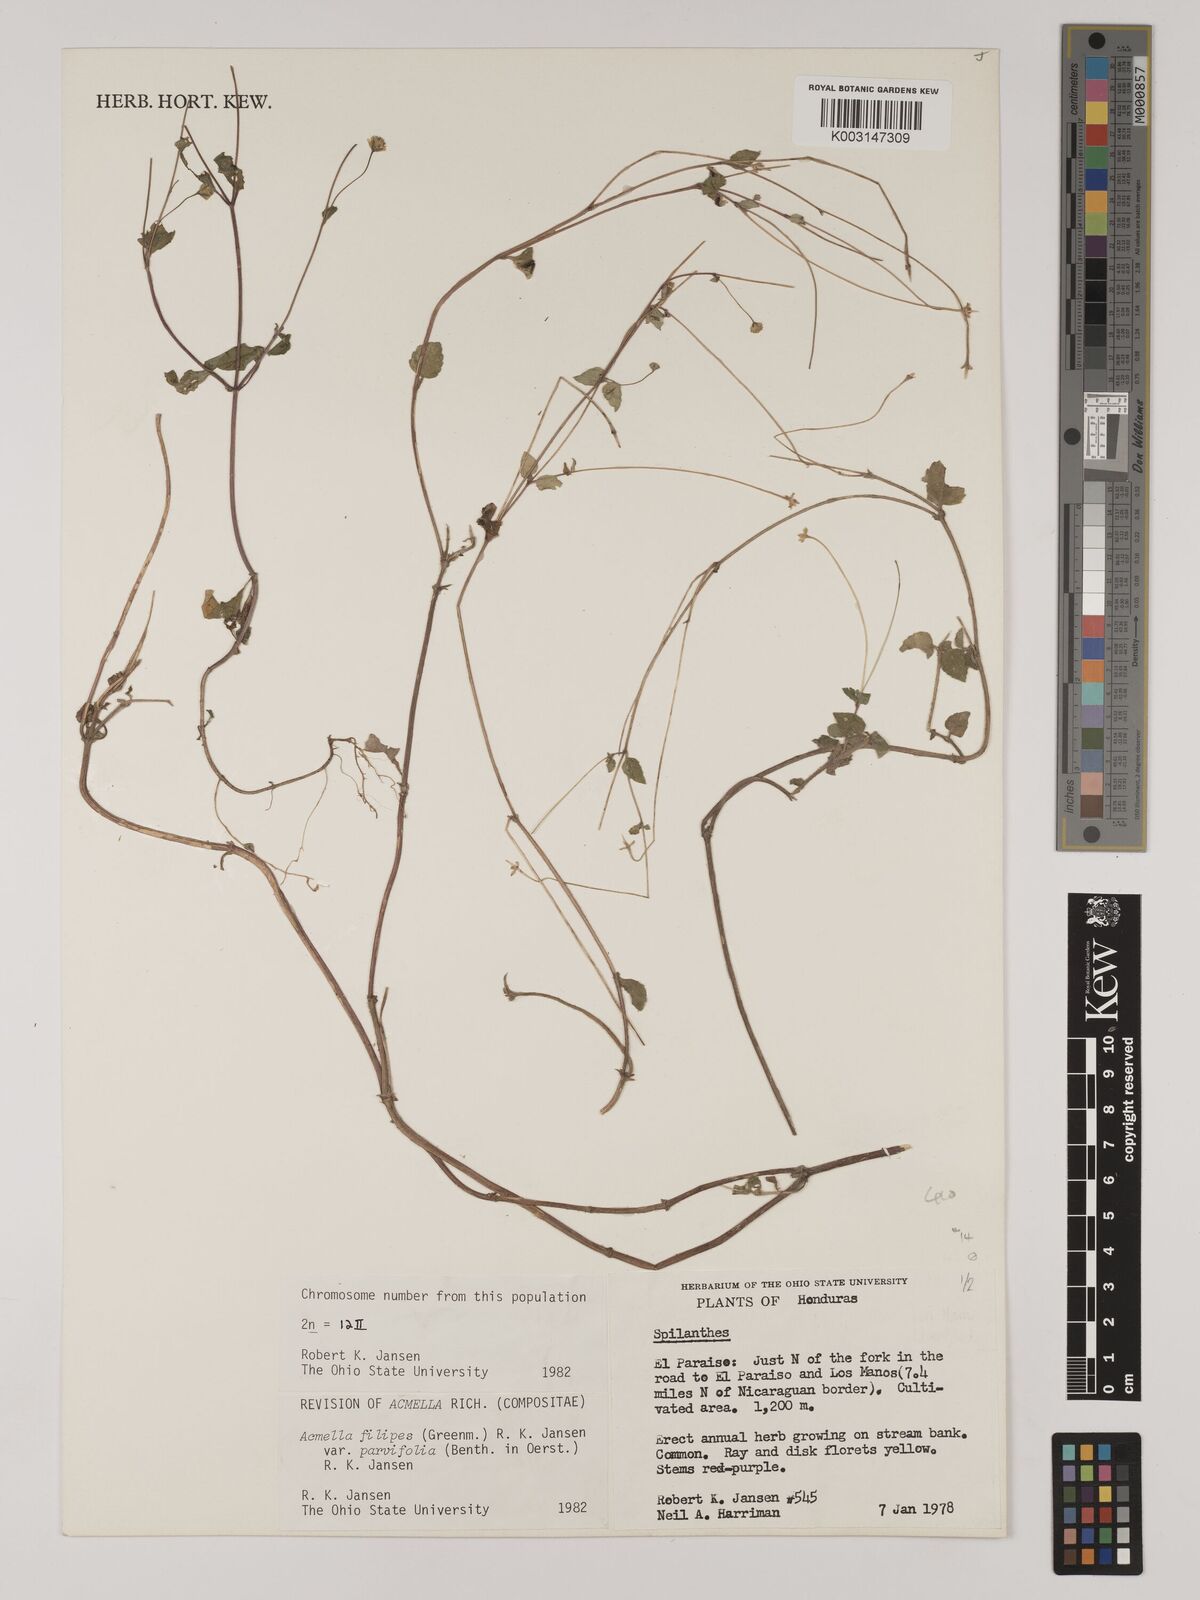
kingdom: Plantae
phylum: Tracheophyta
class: Magnoliopsida
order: Asterales
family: Asteraceae
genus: Acmella
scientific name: Acmella filipes
